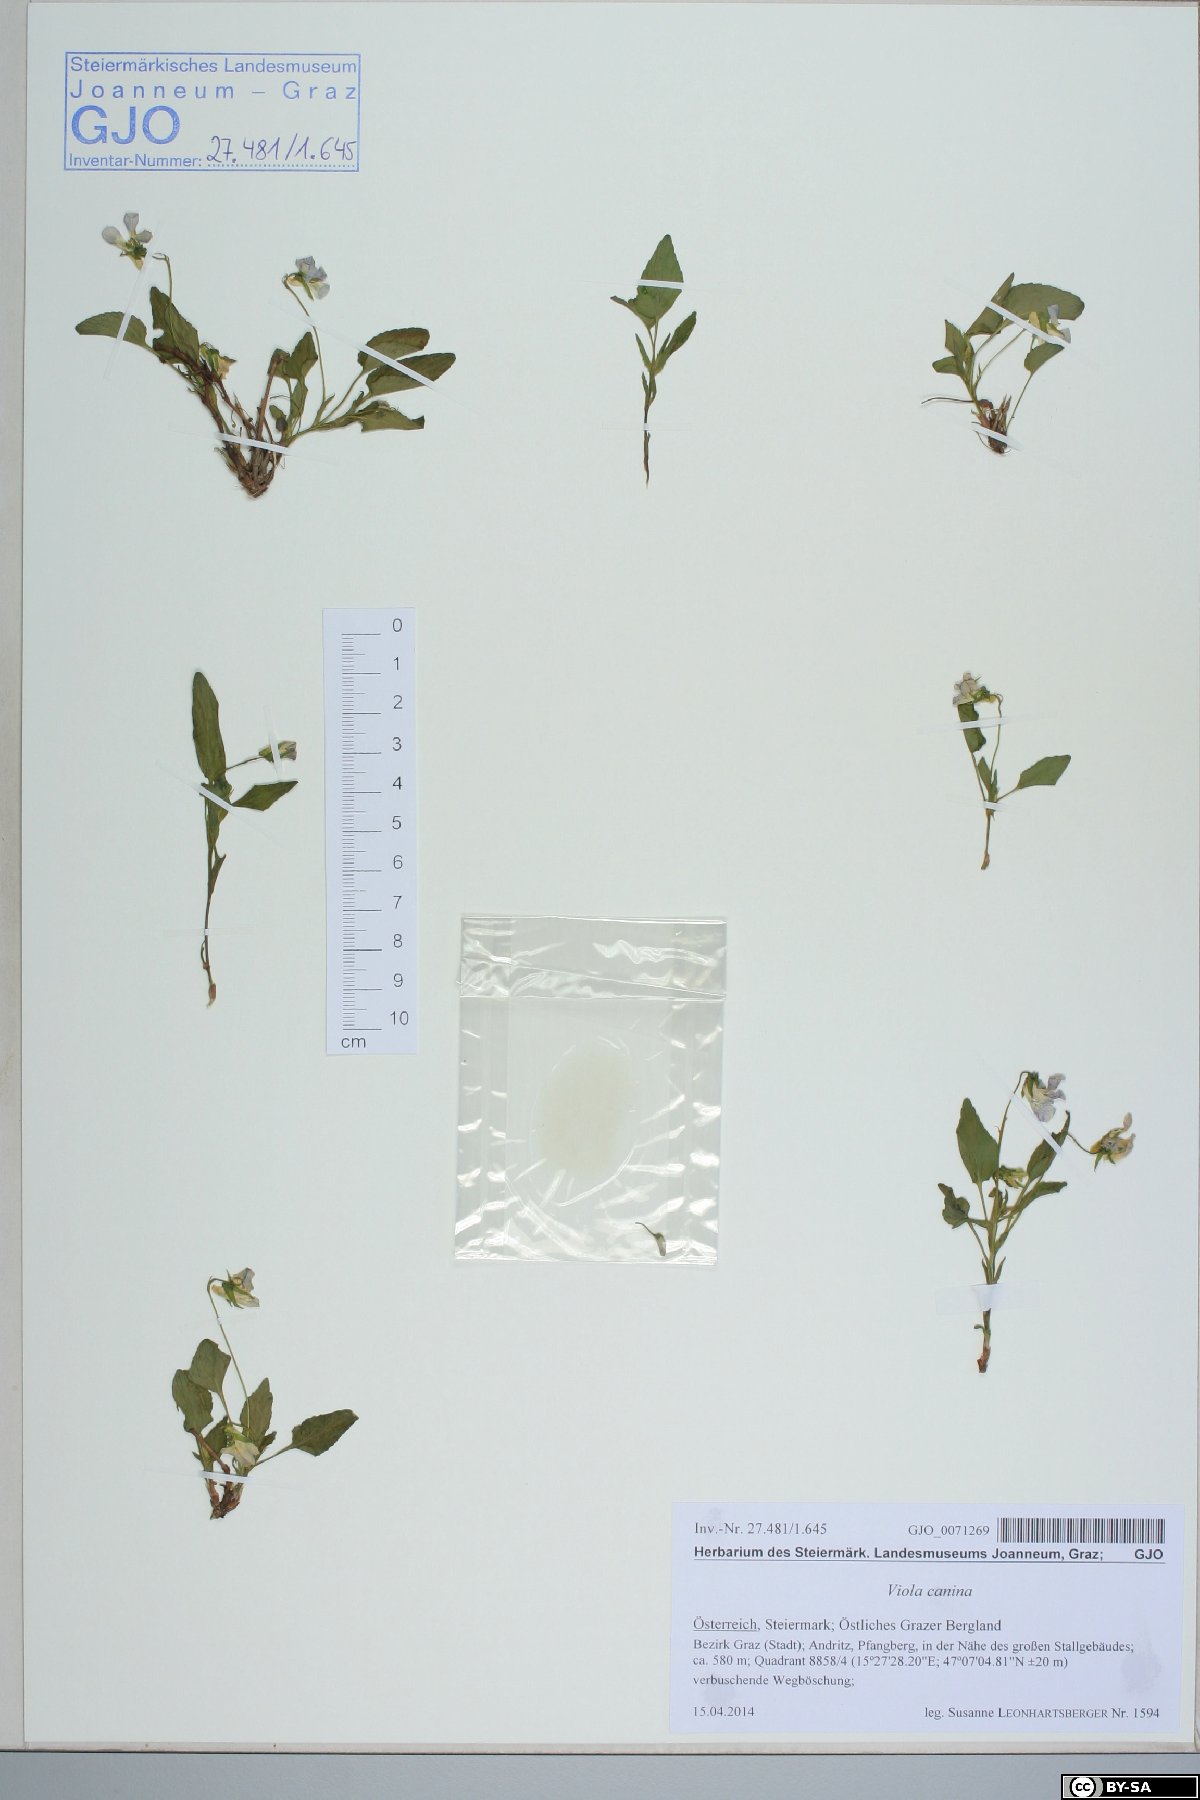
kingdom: Plantae
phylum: Tracheophyta
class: Magnoliopsida
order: Malpighiales
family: Violaceae
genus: Viola
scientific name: Viola canina
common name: Heath dog-violet
